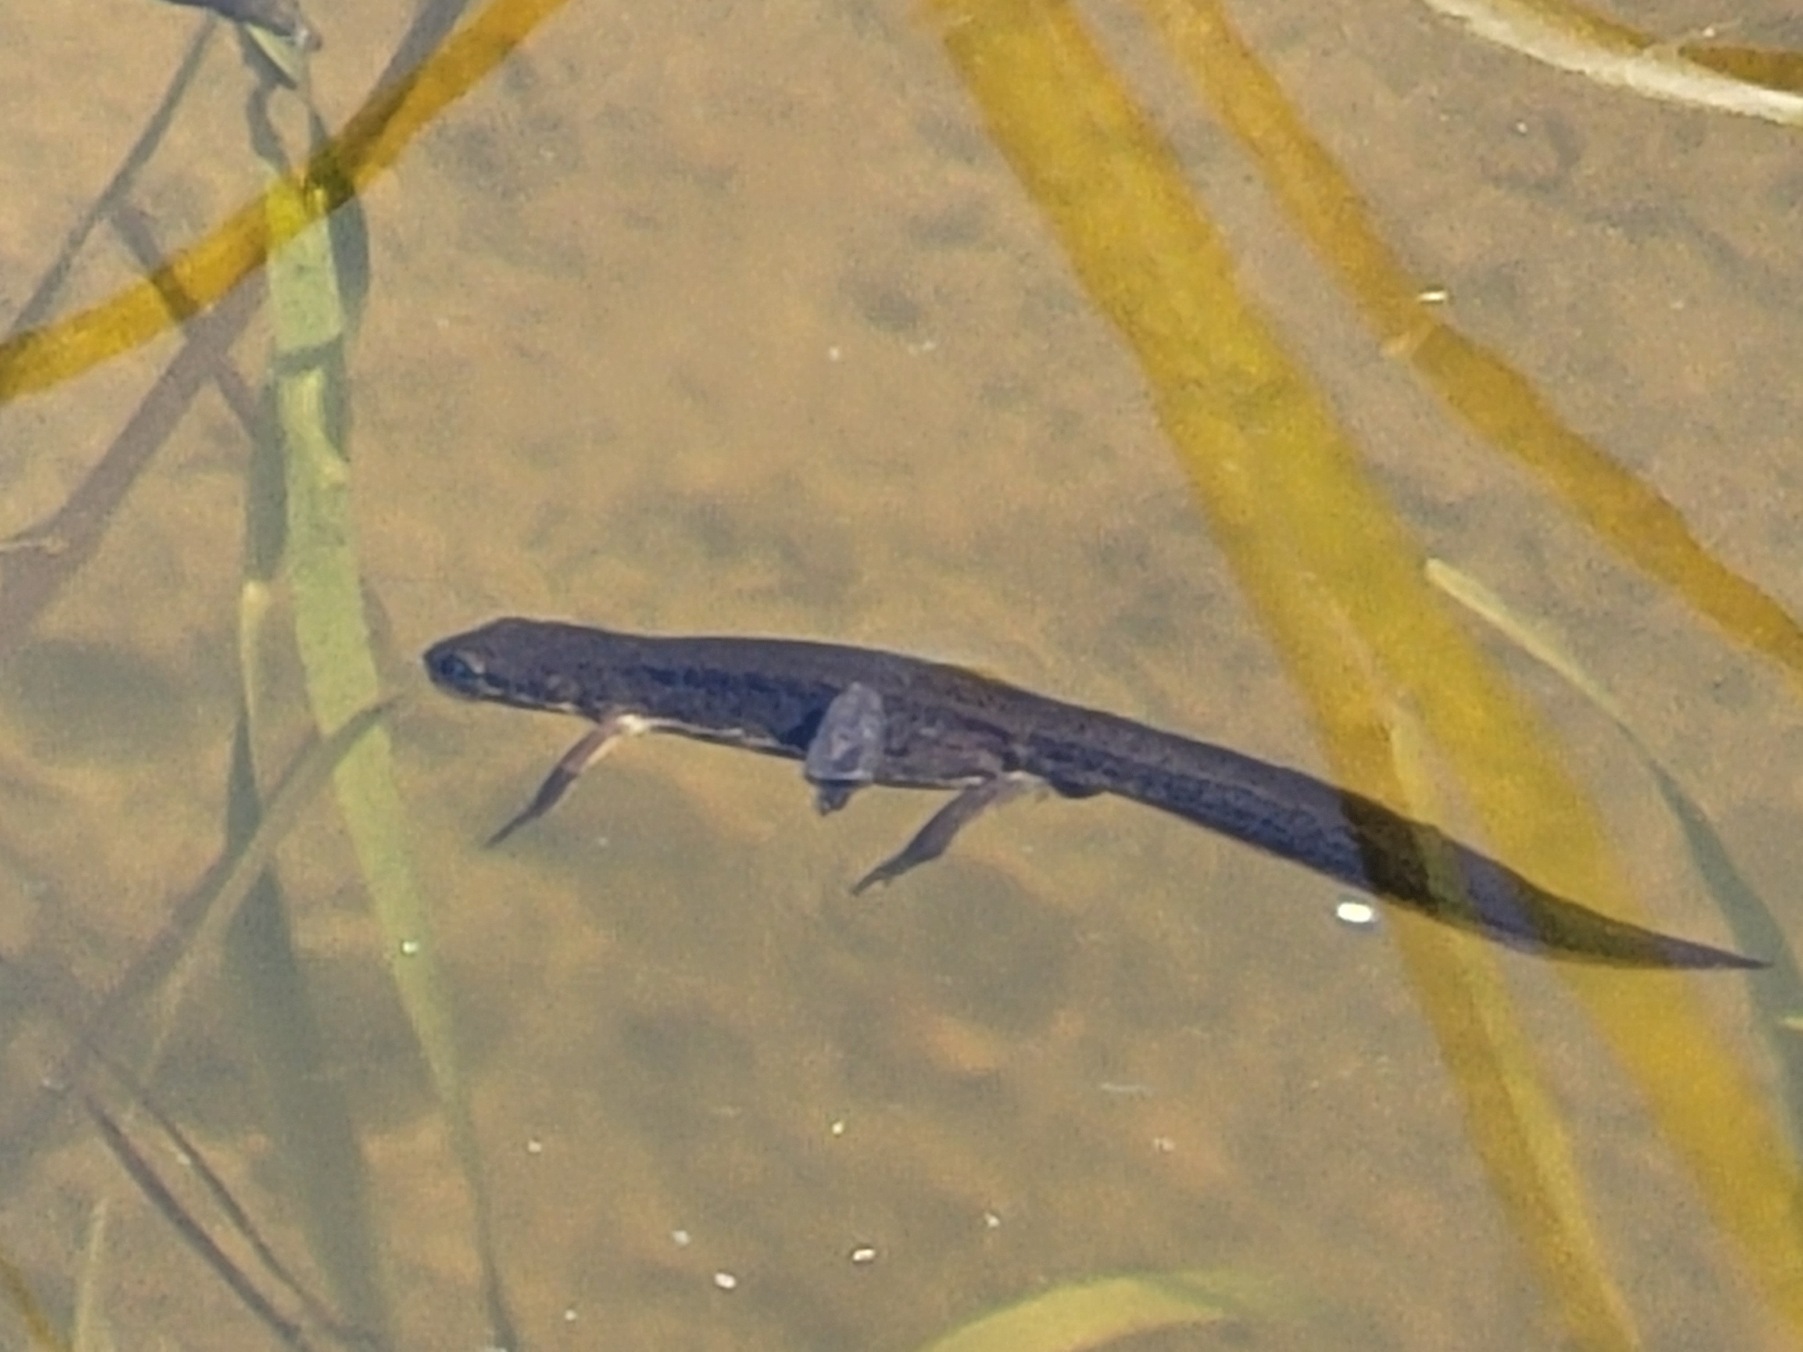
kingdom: Animalia
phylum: Chordata
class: Amphibia
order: Caudata
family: Salamandridae
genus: Lissotriton
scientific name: Lissotriton vulgaris
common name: Lille vandsalamander
